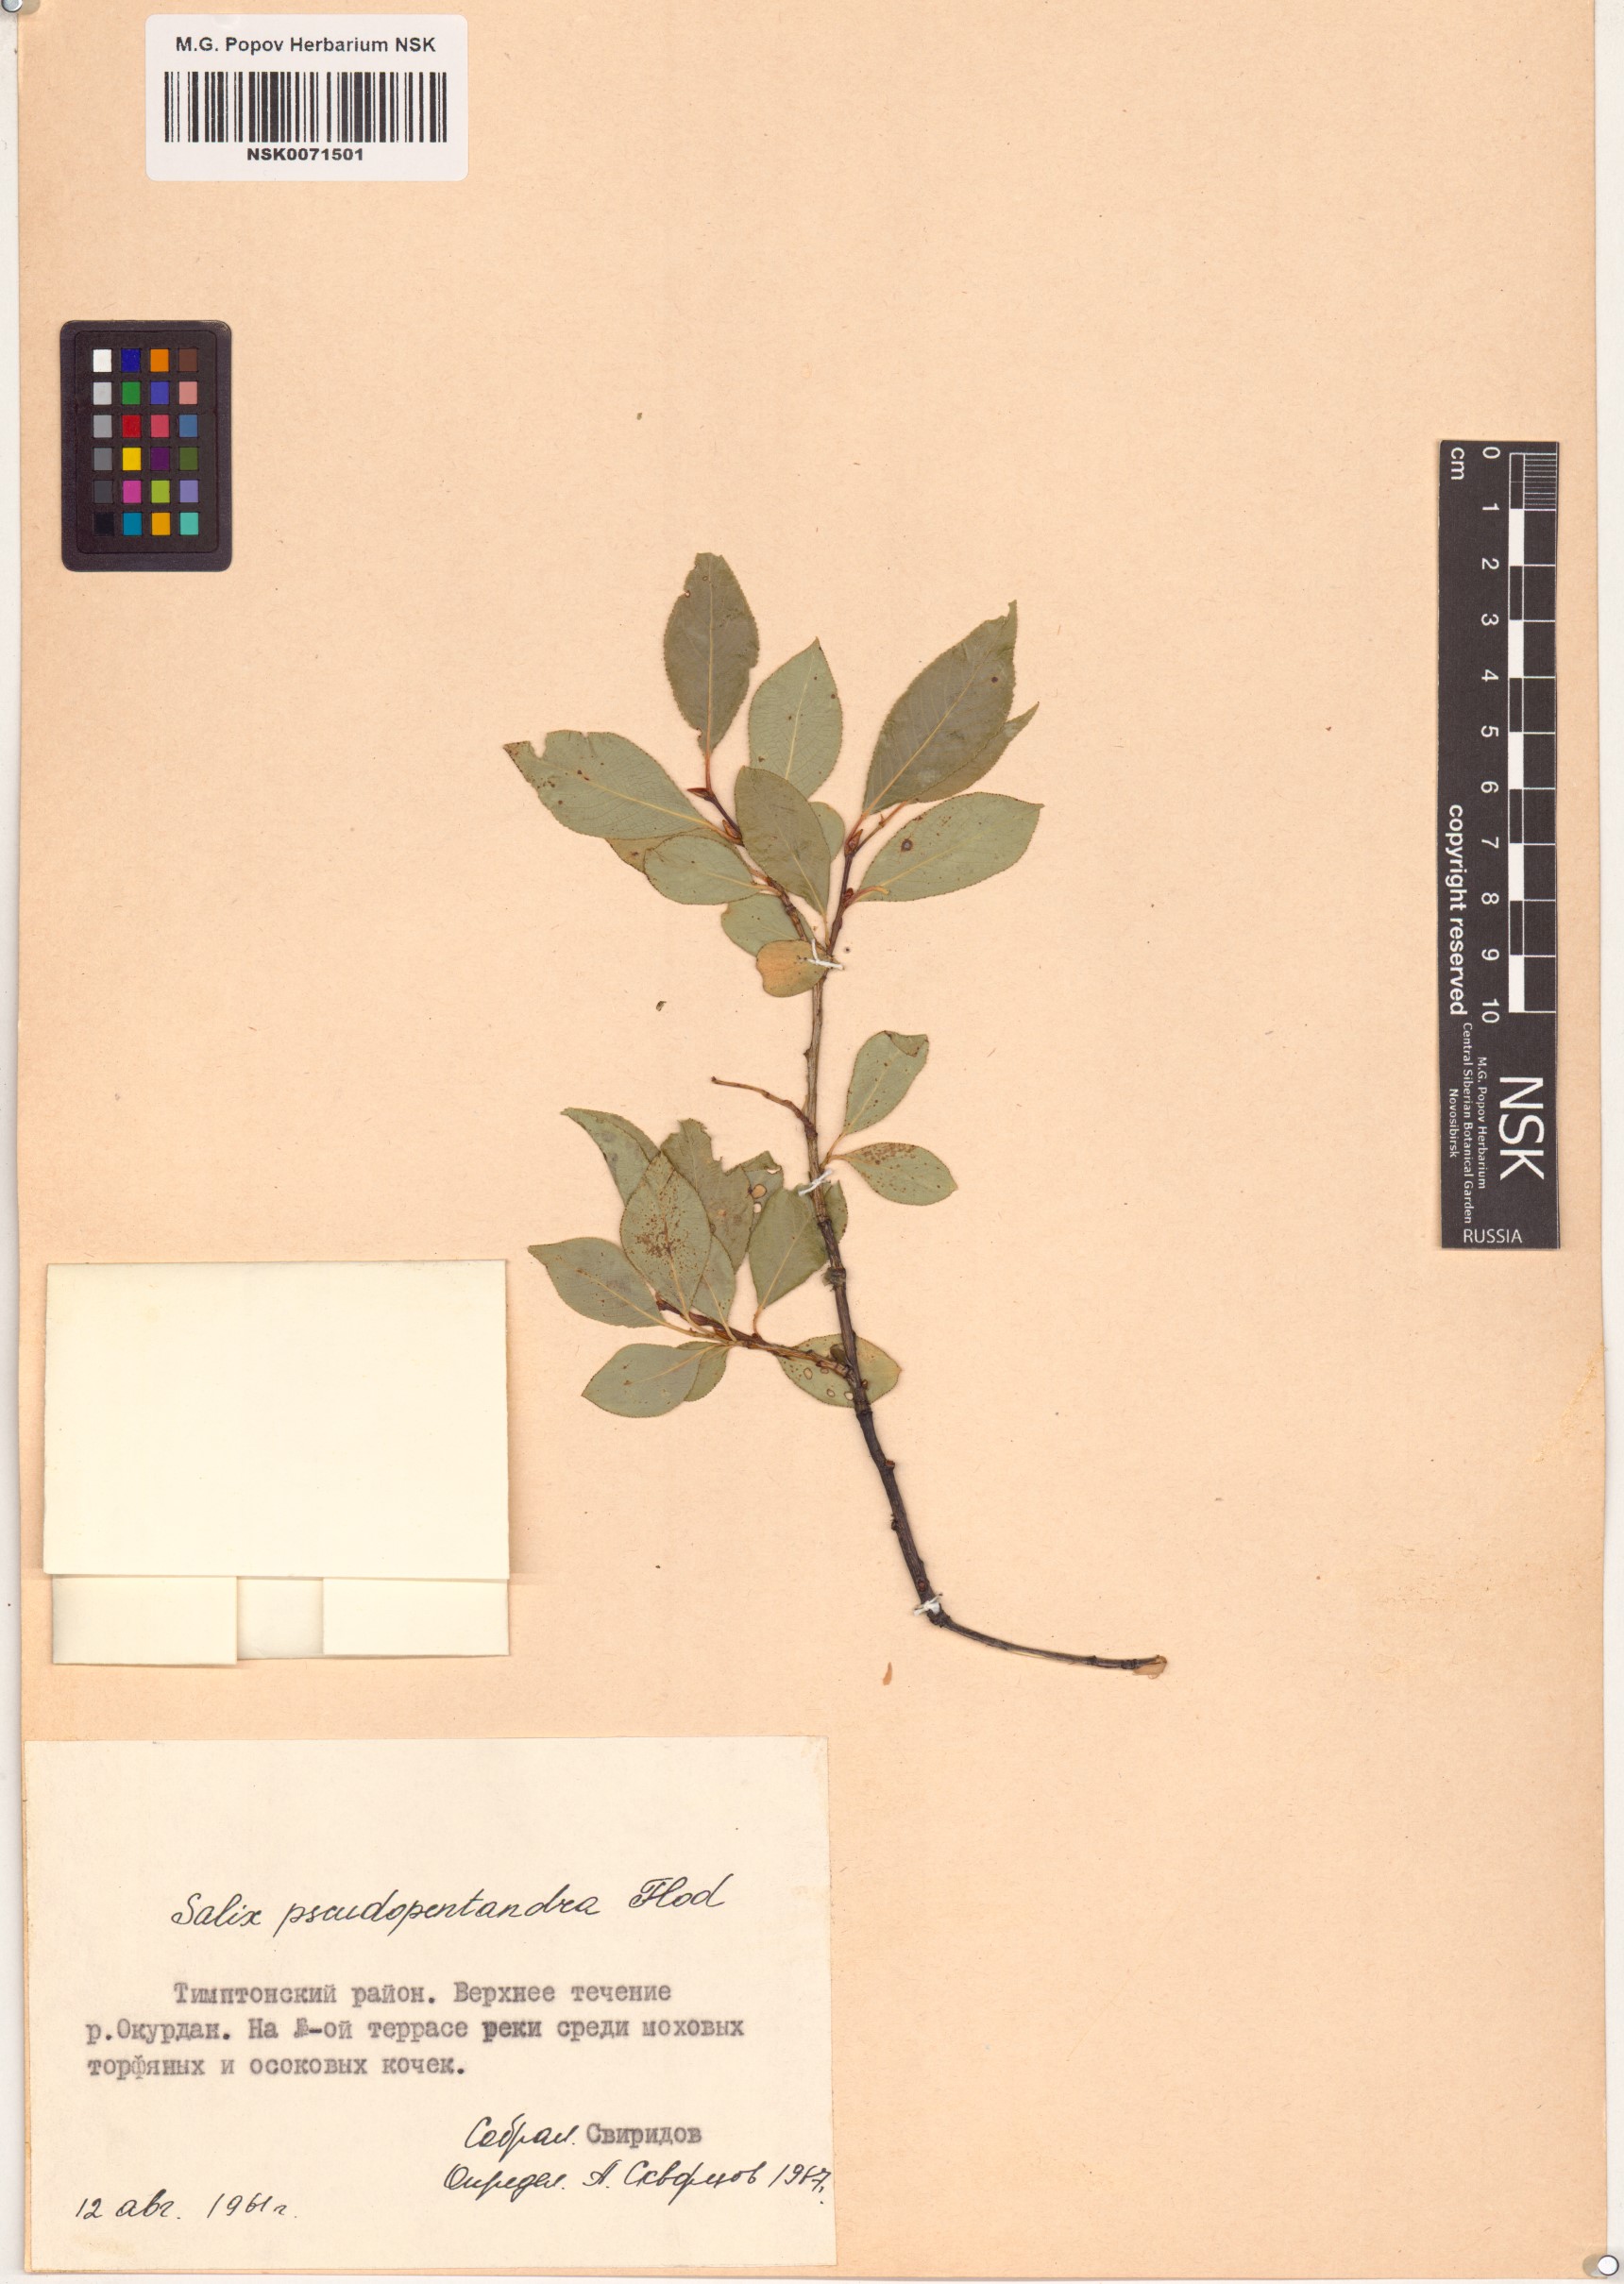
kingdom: Plantae
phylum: Tracheophyta
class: Magnoliopsida
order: Malpighiales
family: Salicaceae
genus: Salix
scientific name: Salix pseudopentandra
